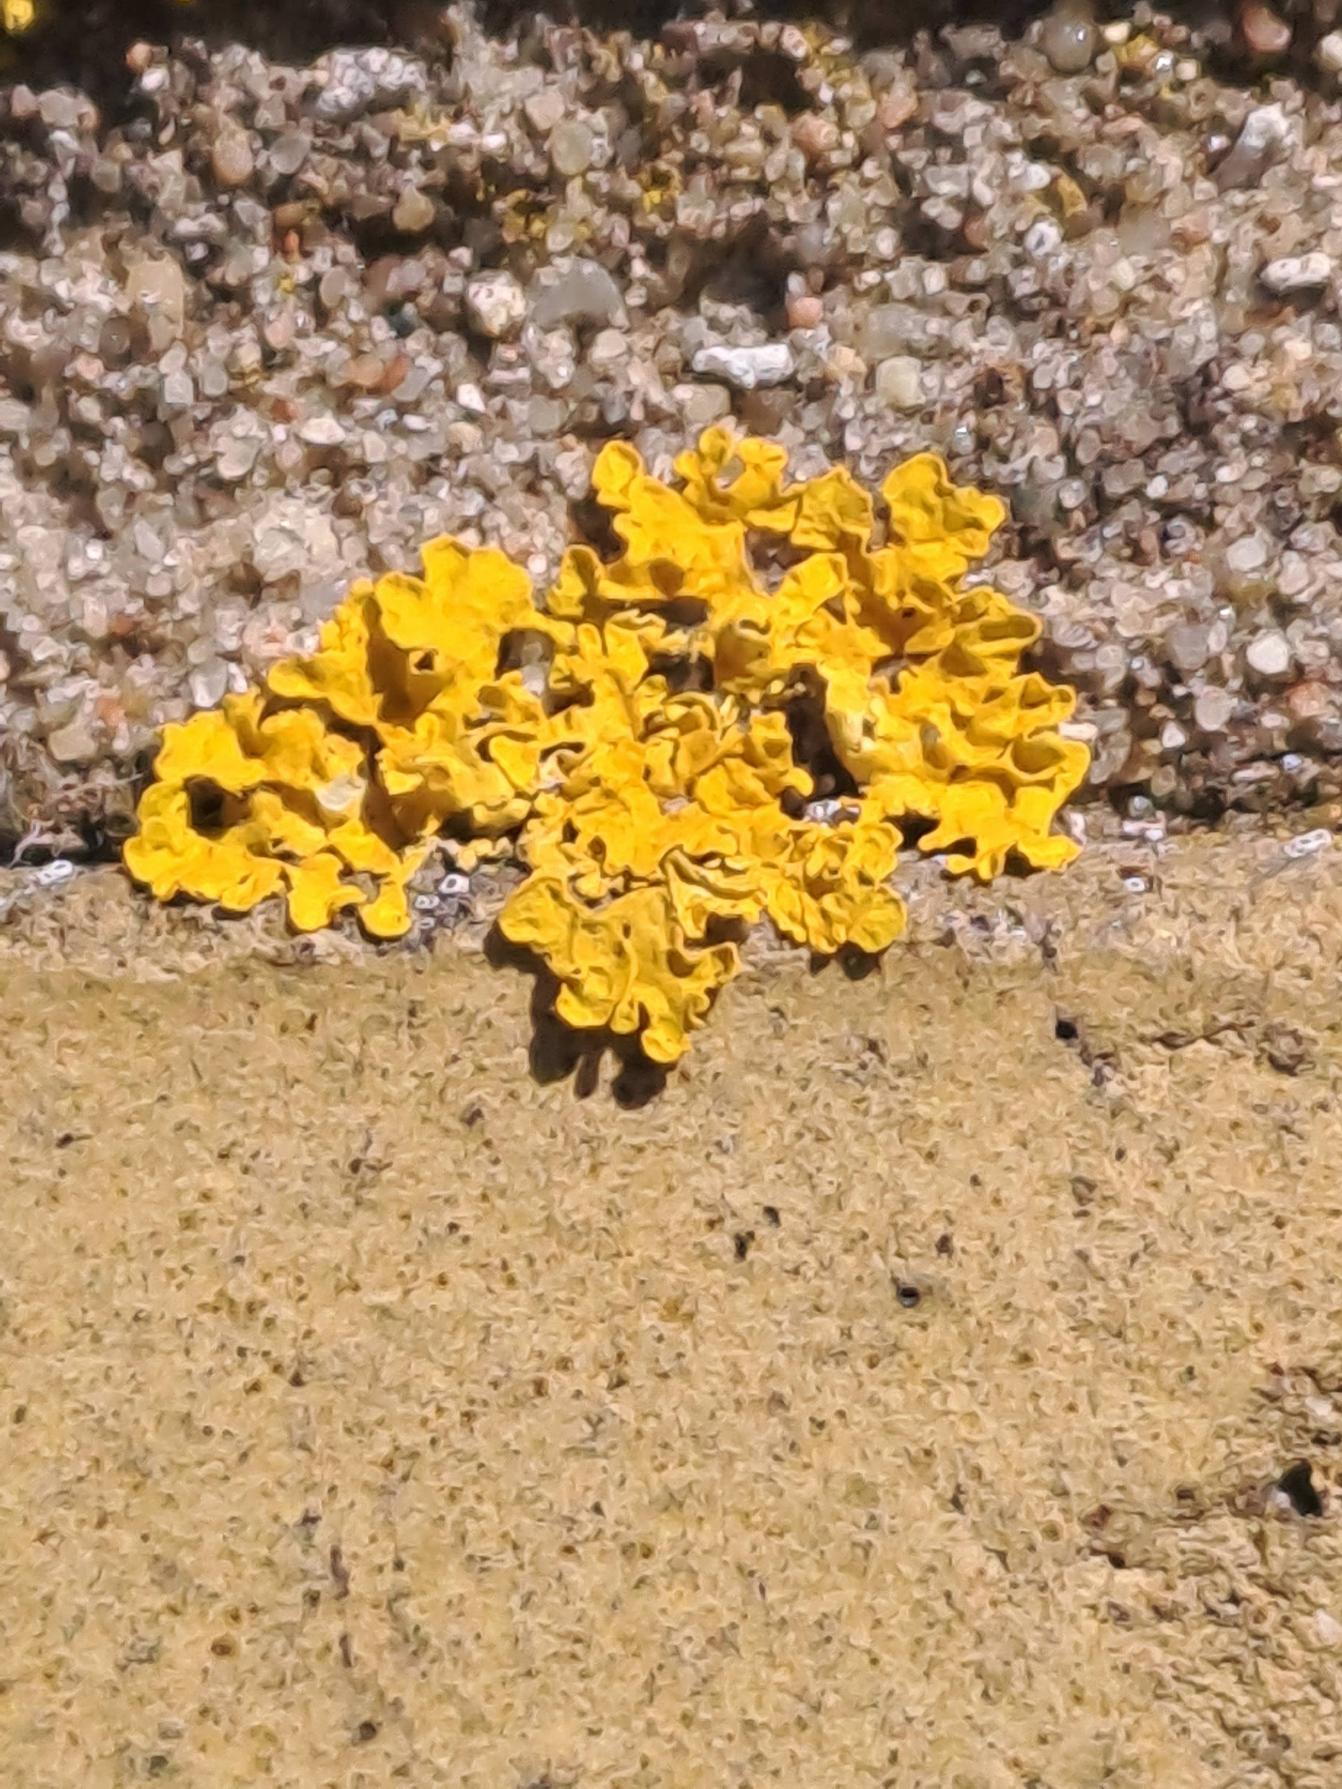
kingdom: Fungi
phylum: Ascomycota
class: Lecanoromycetes
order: Teloschistales
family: Teloschistaceae
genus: Xanthoria
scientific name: Xanthoria parietina
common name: Almindelig væggelav
